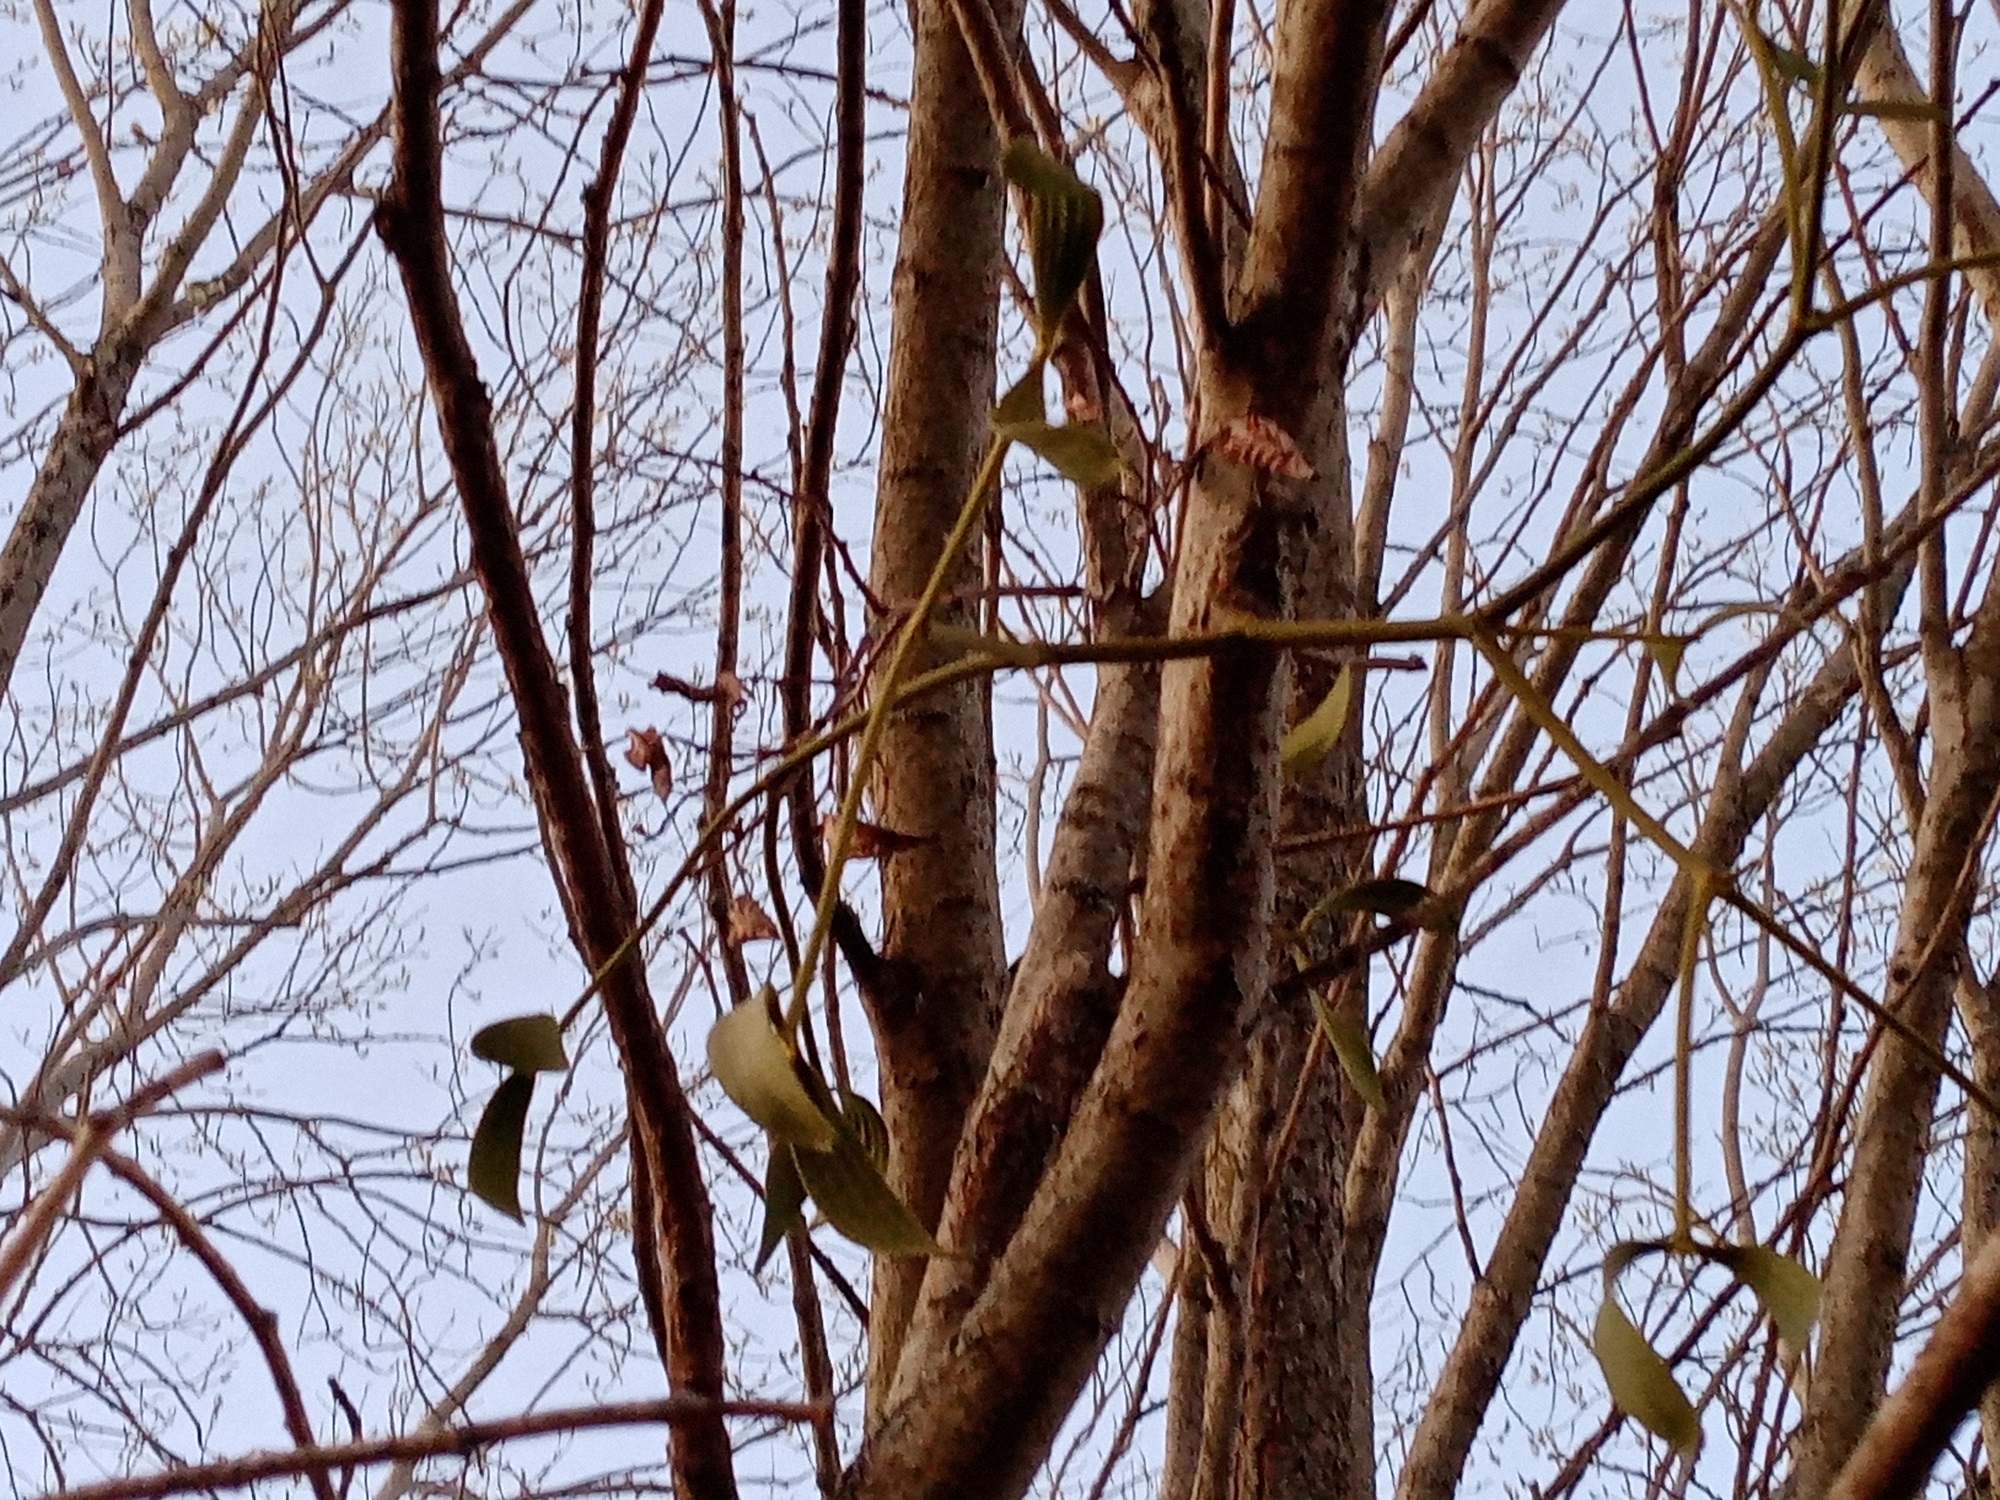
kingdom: Plantae
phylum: Tracheophyta
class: Magnoliopsida
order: Santalales
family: Viscaceae
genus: Viscum
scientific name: Viscum album
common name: Mistletoe
